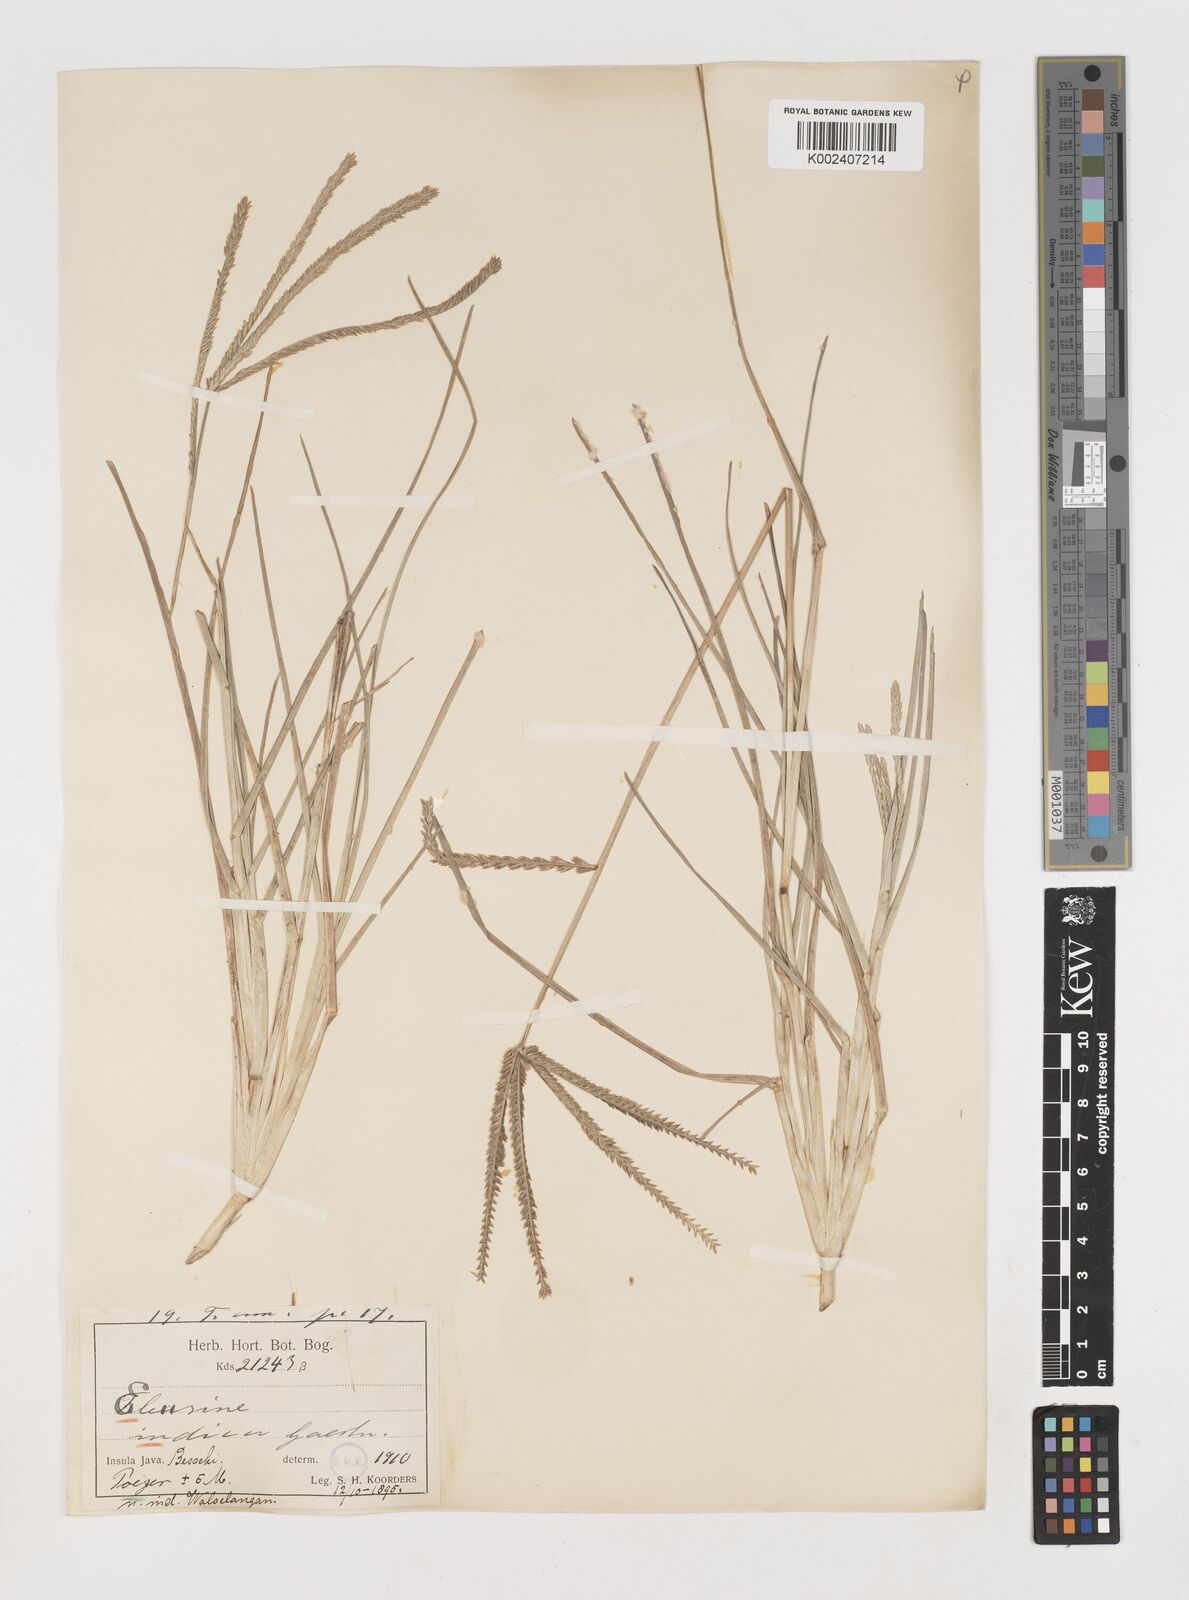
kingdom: Plantae
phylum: Tracheophyta
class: Liliopsida
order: Poales
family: Poaceae
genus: Eleusine
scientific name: Eleusine indica
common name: Yard-grass
